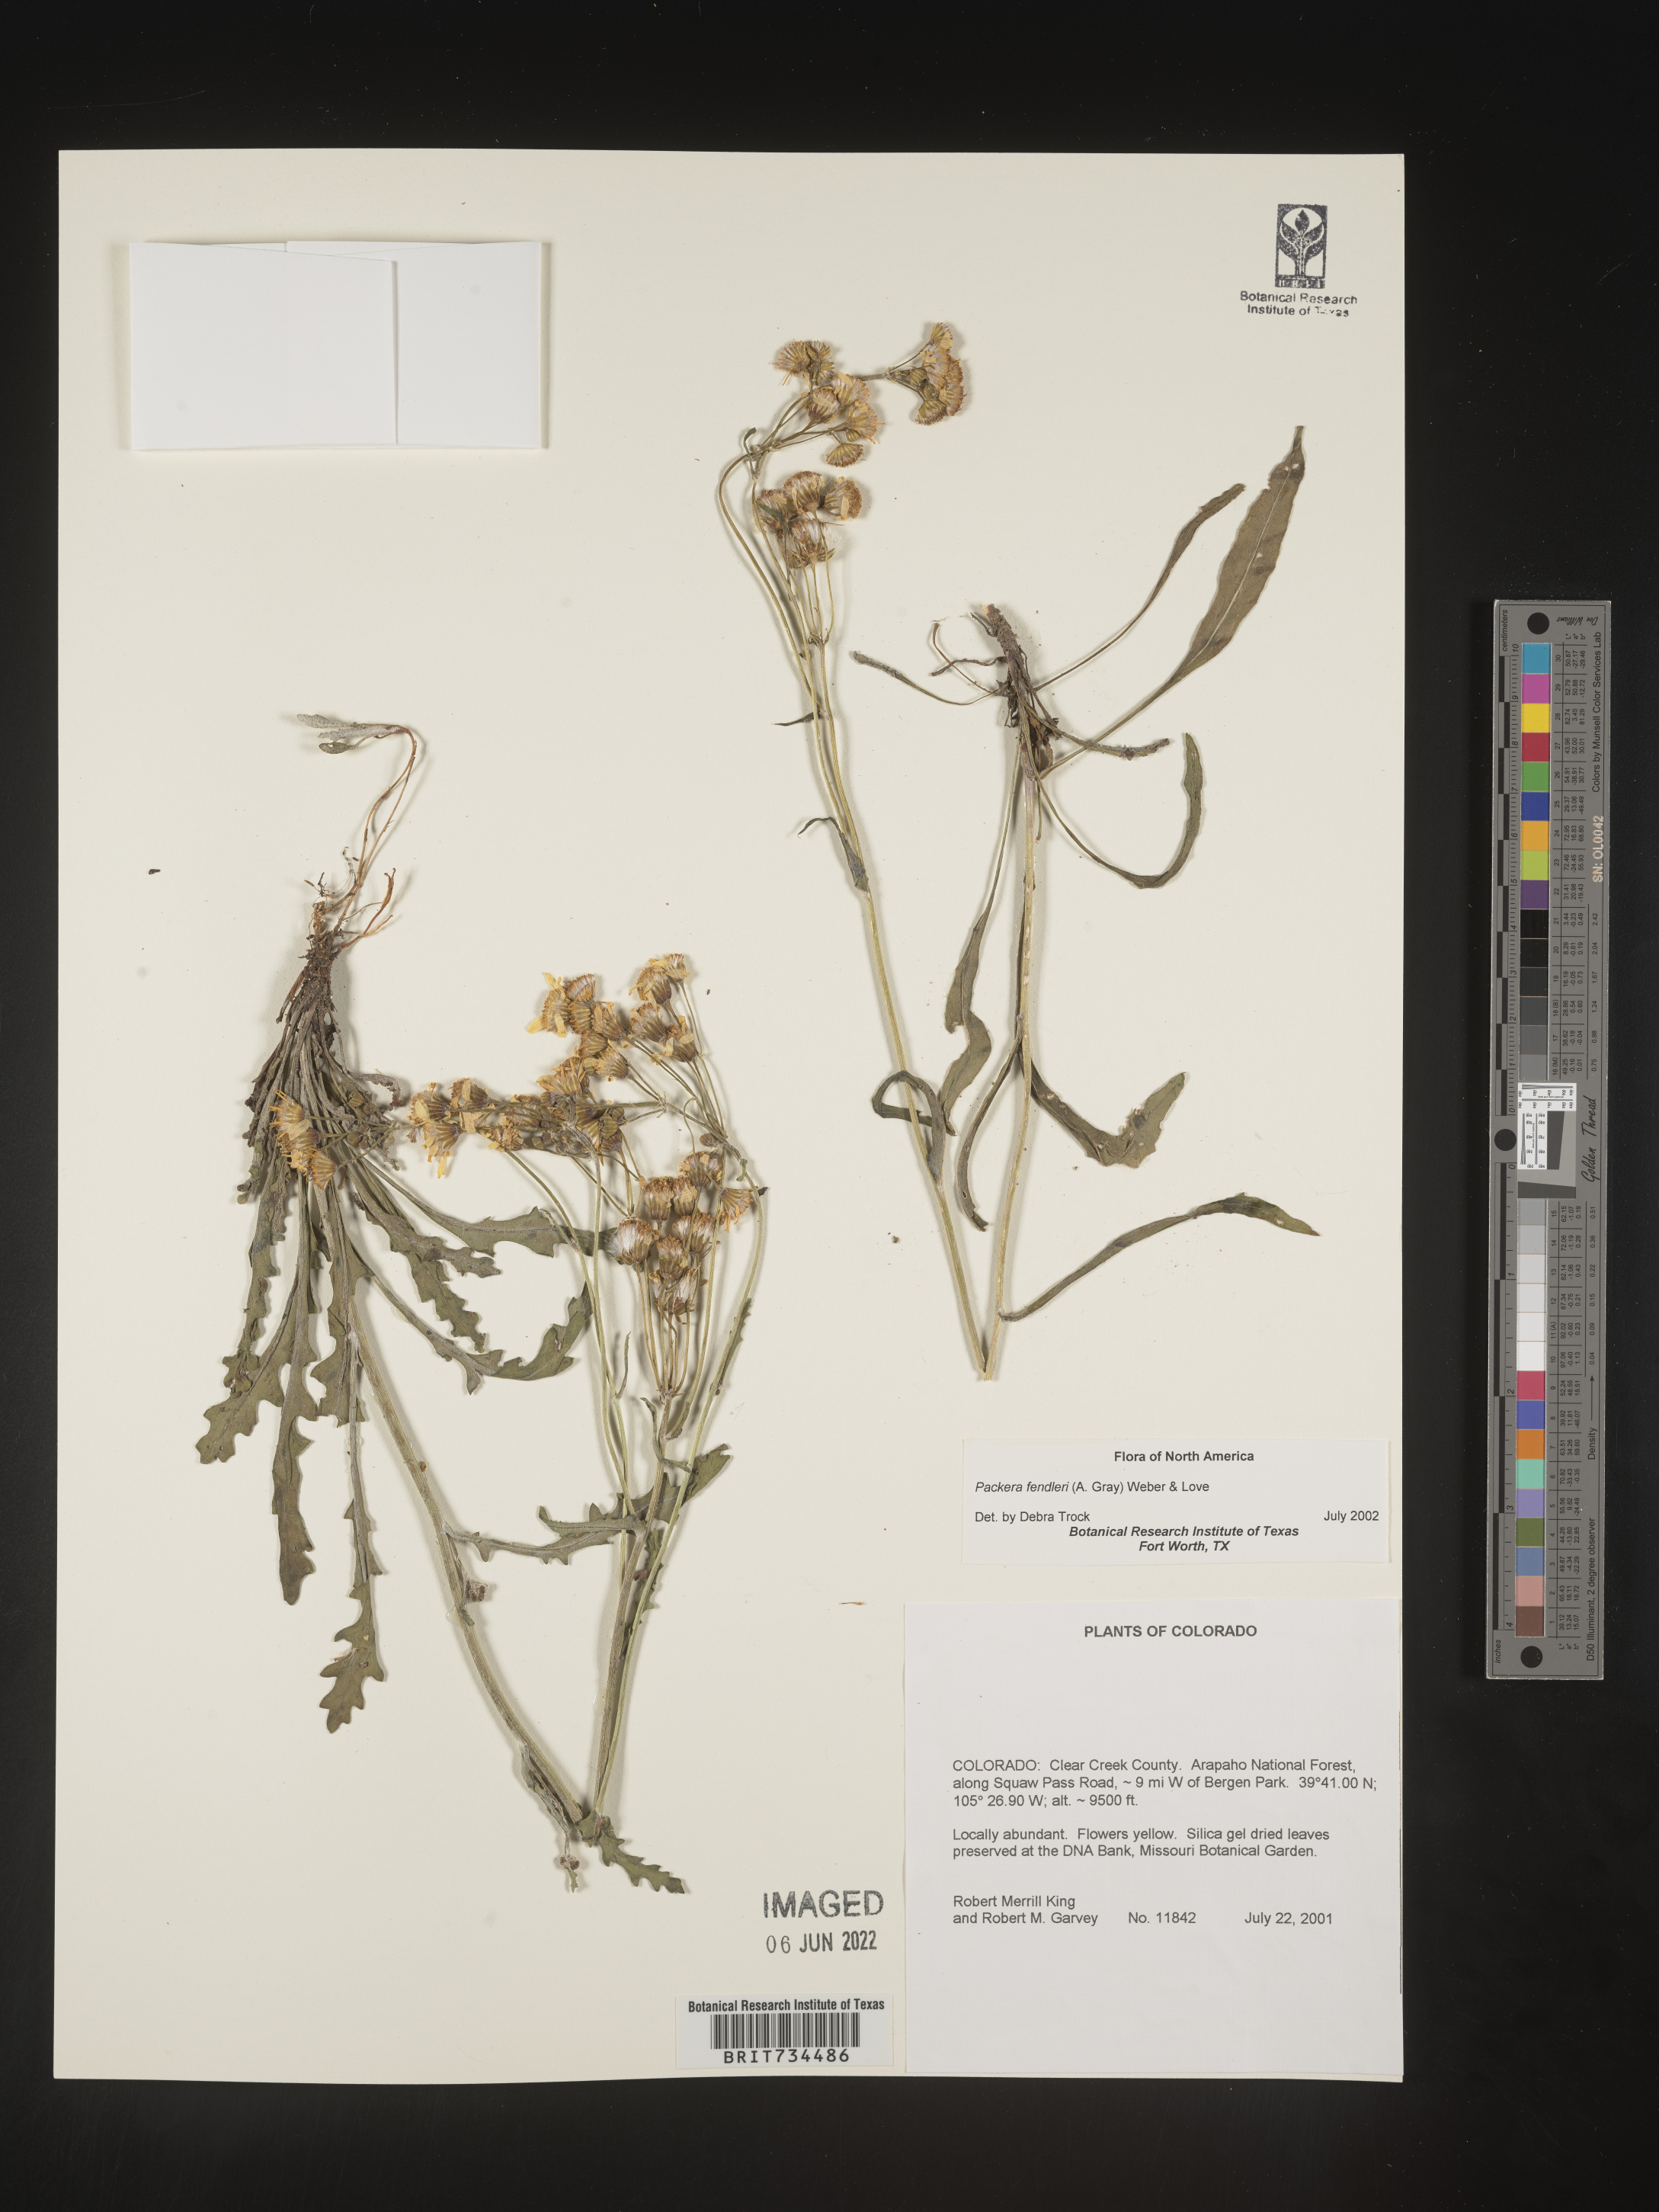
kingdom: Plantae
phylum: Tracheophyta
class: Magnoliopsida
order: Asterales
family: Asteraceae
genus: Packera
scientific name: Packera fendleri
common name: Notch-leaf butterweed
